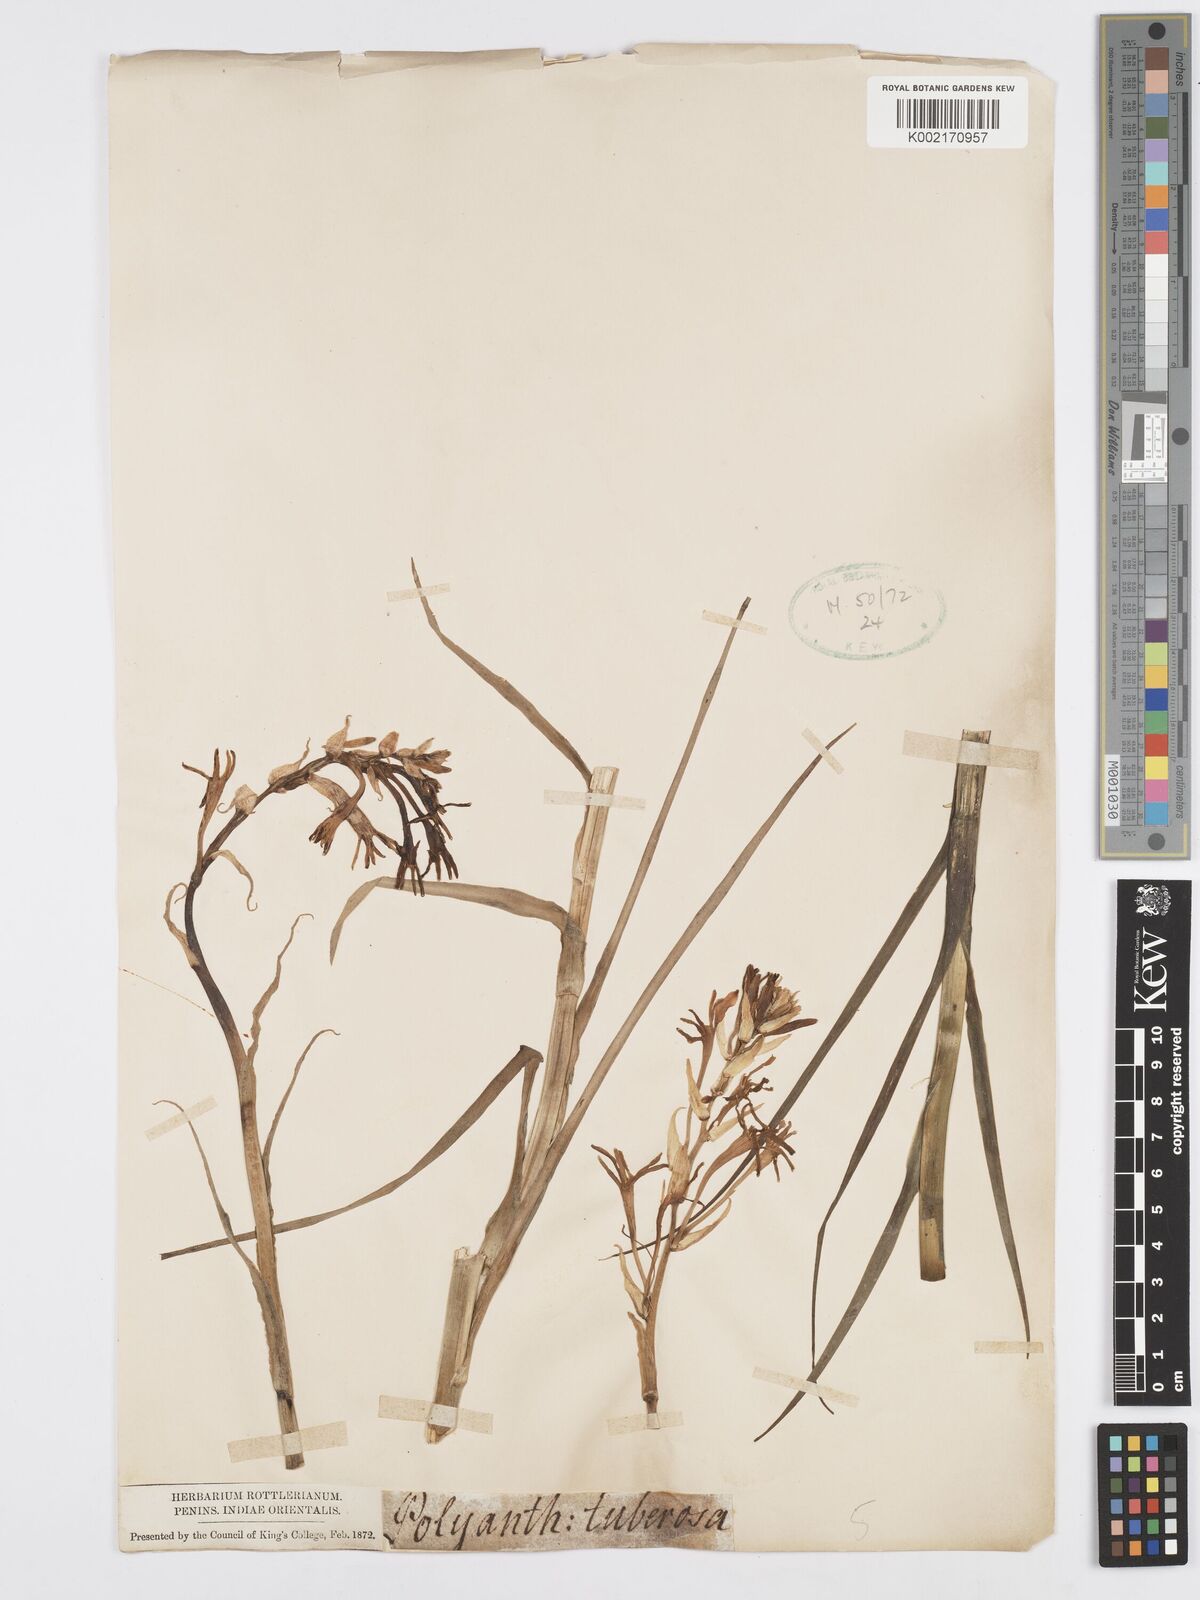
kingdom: Plantae
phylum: Tracheophyta
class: Liliopsida
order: Asparagales
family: Asparagaceae
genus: Agave
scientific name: Agave amica
